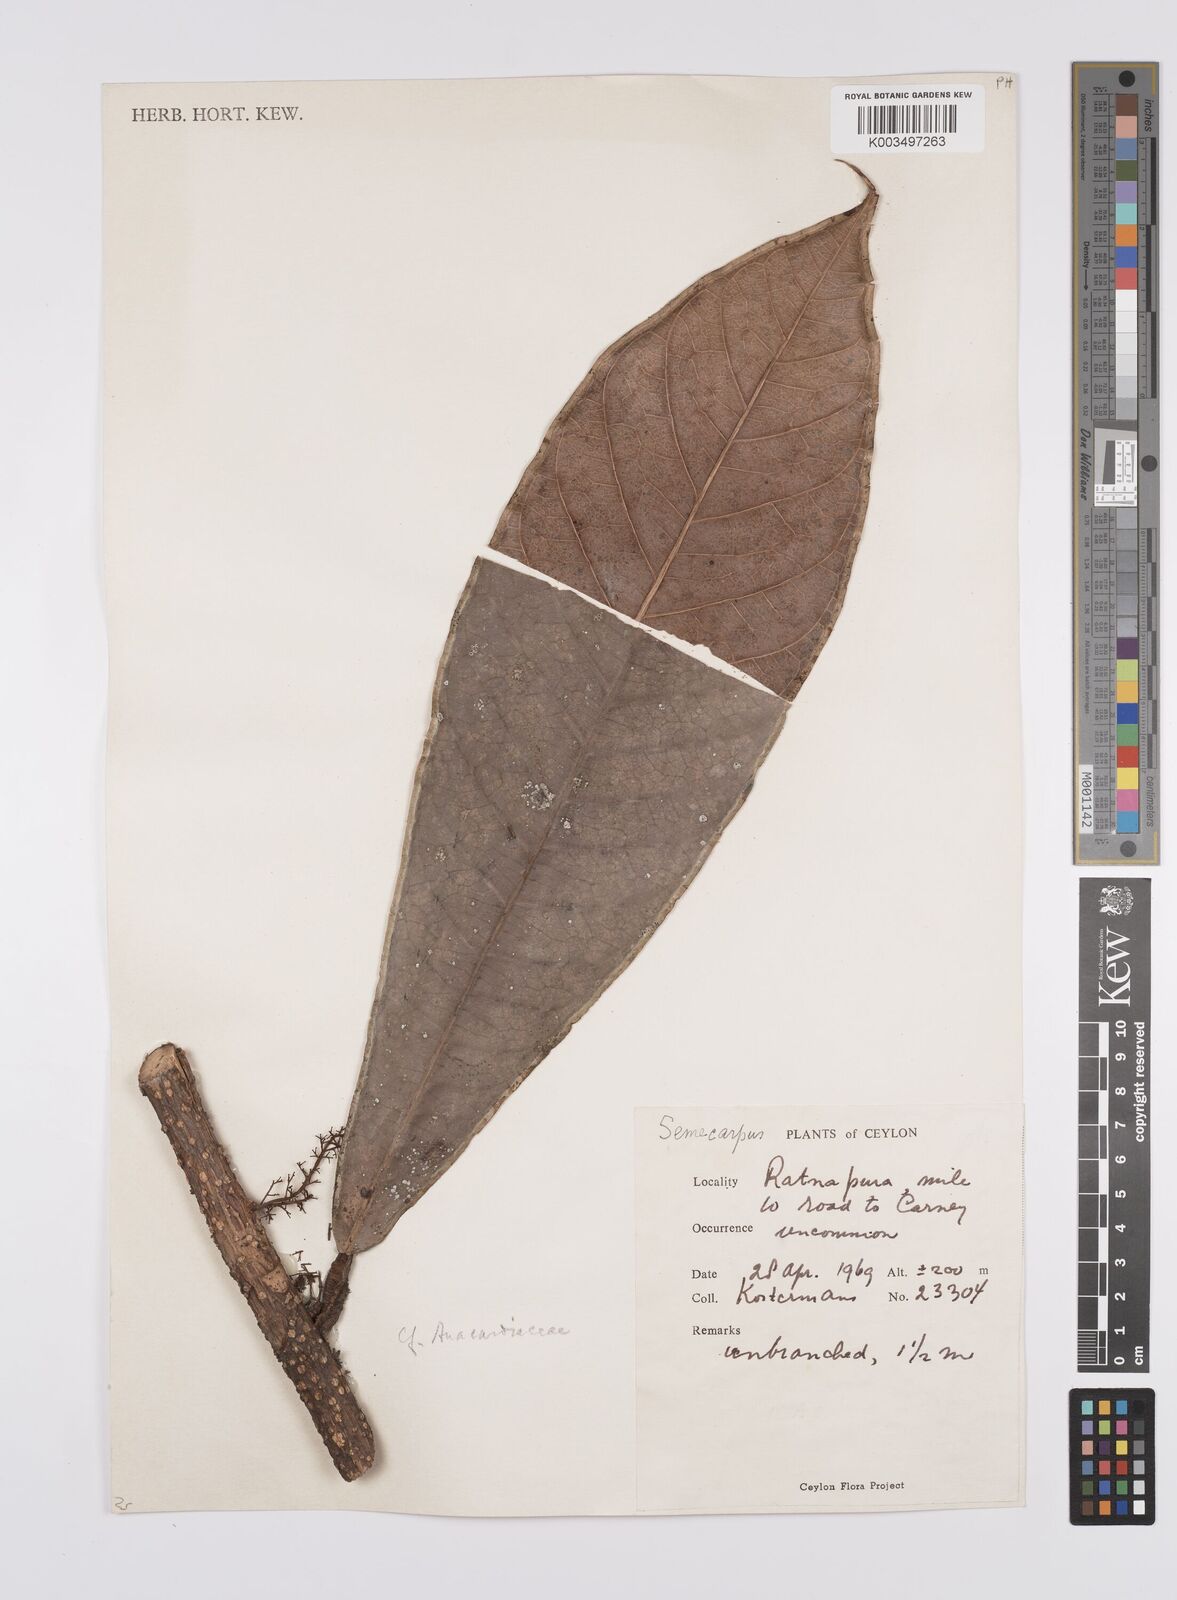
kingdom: Plantae
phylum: Tracheophyta
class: Magnoliopsida
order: Sapindales
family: Anacardiaceae
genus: Semecarpus
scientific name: Semecarpus
